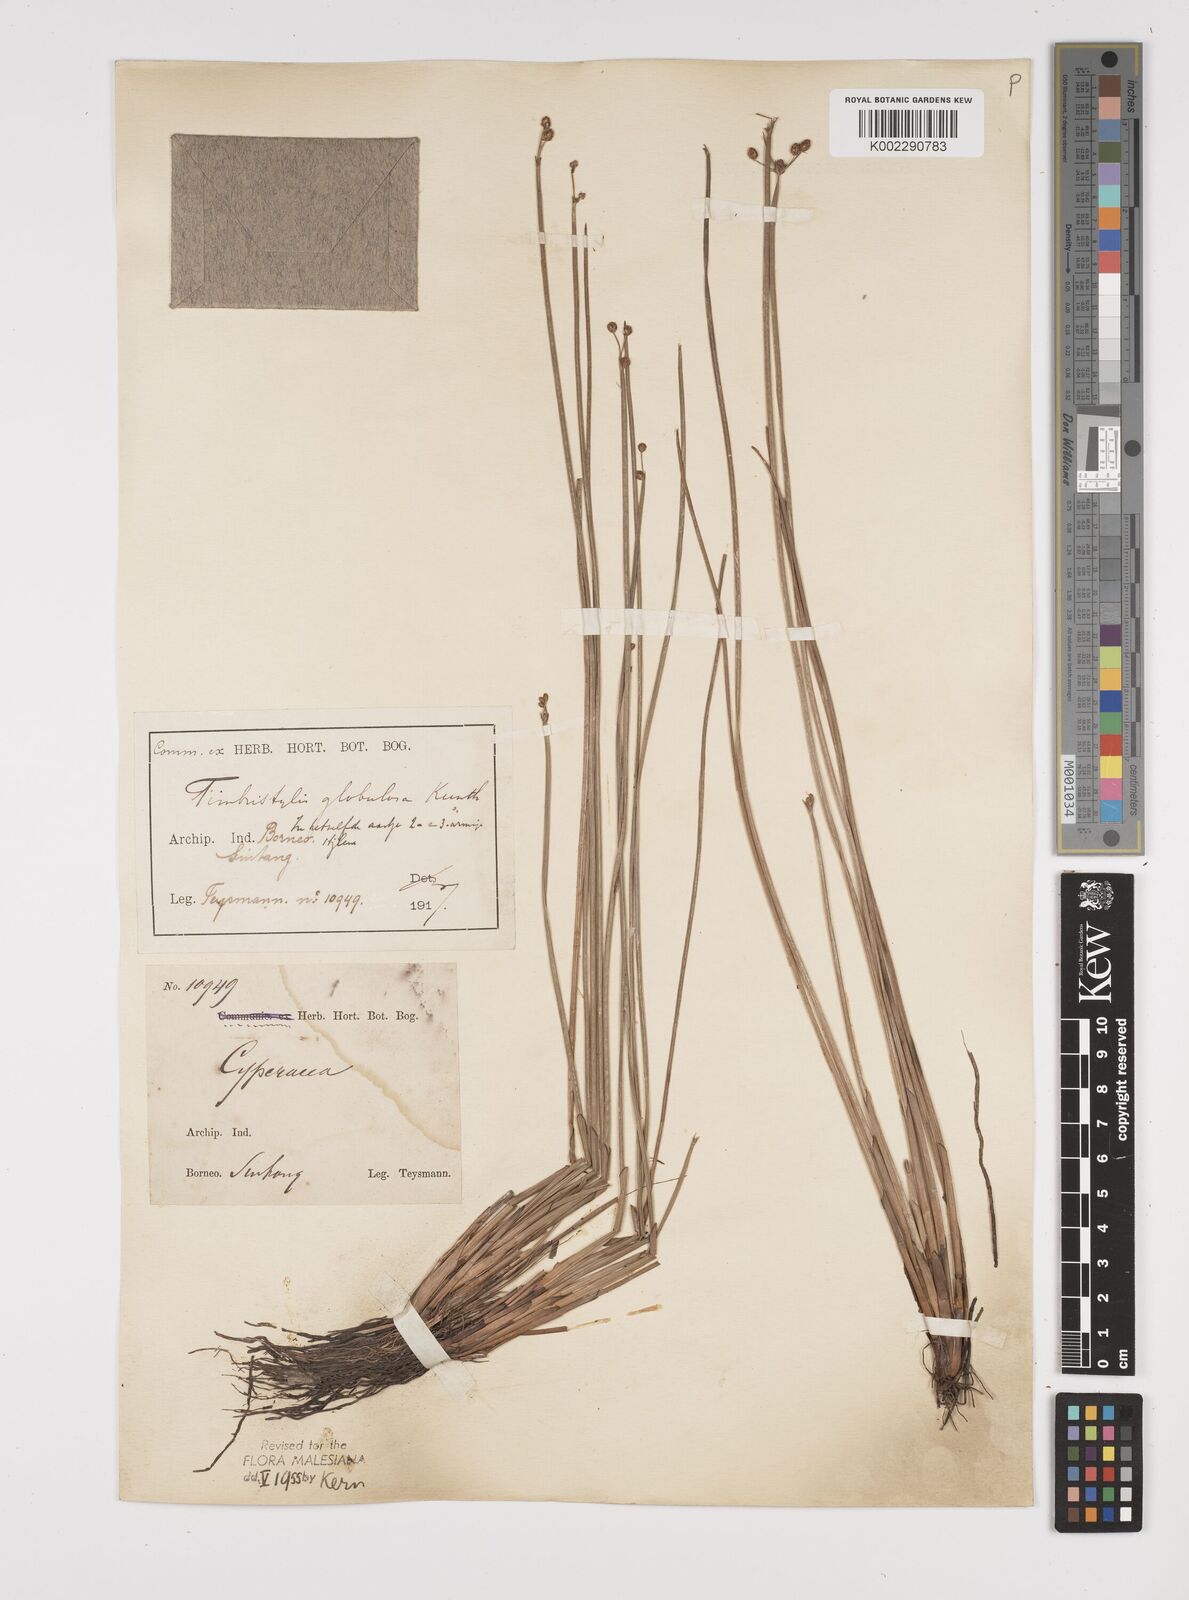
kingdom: Plantae
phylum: Tracheophyta
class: Liliopsida
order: Poales
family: Cyperaceae
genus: Fimbristylis
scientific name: Fimbristylis umbellaris
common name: Globular fimbristylis
